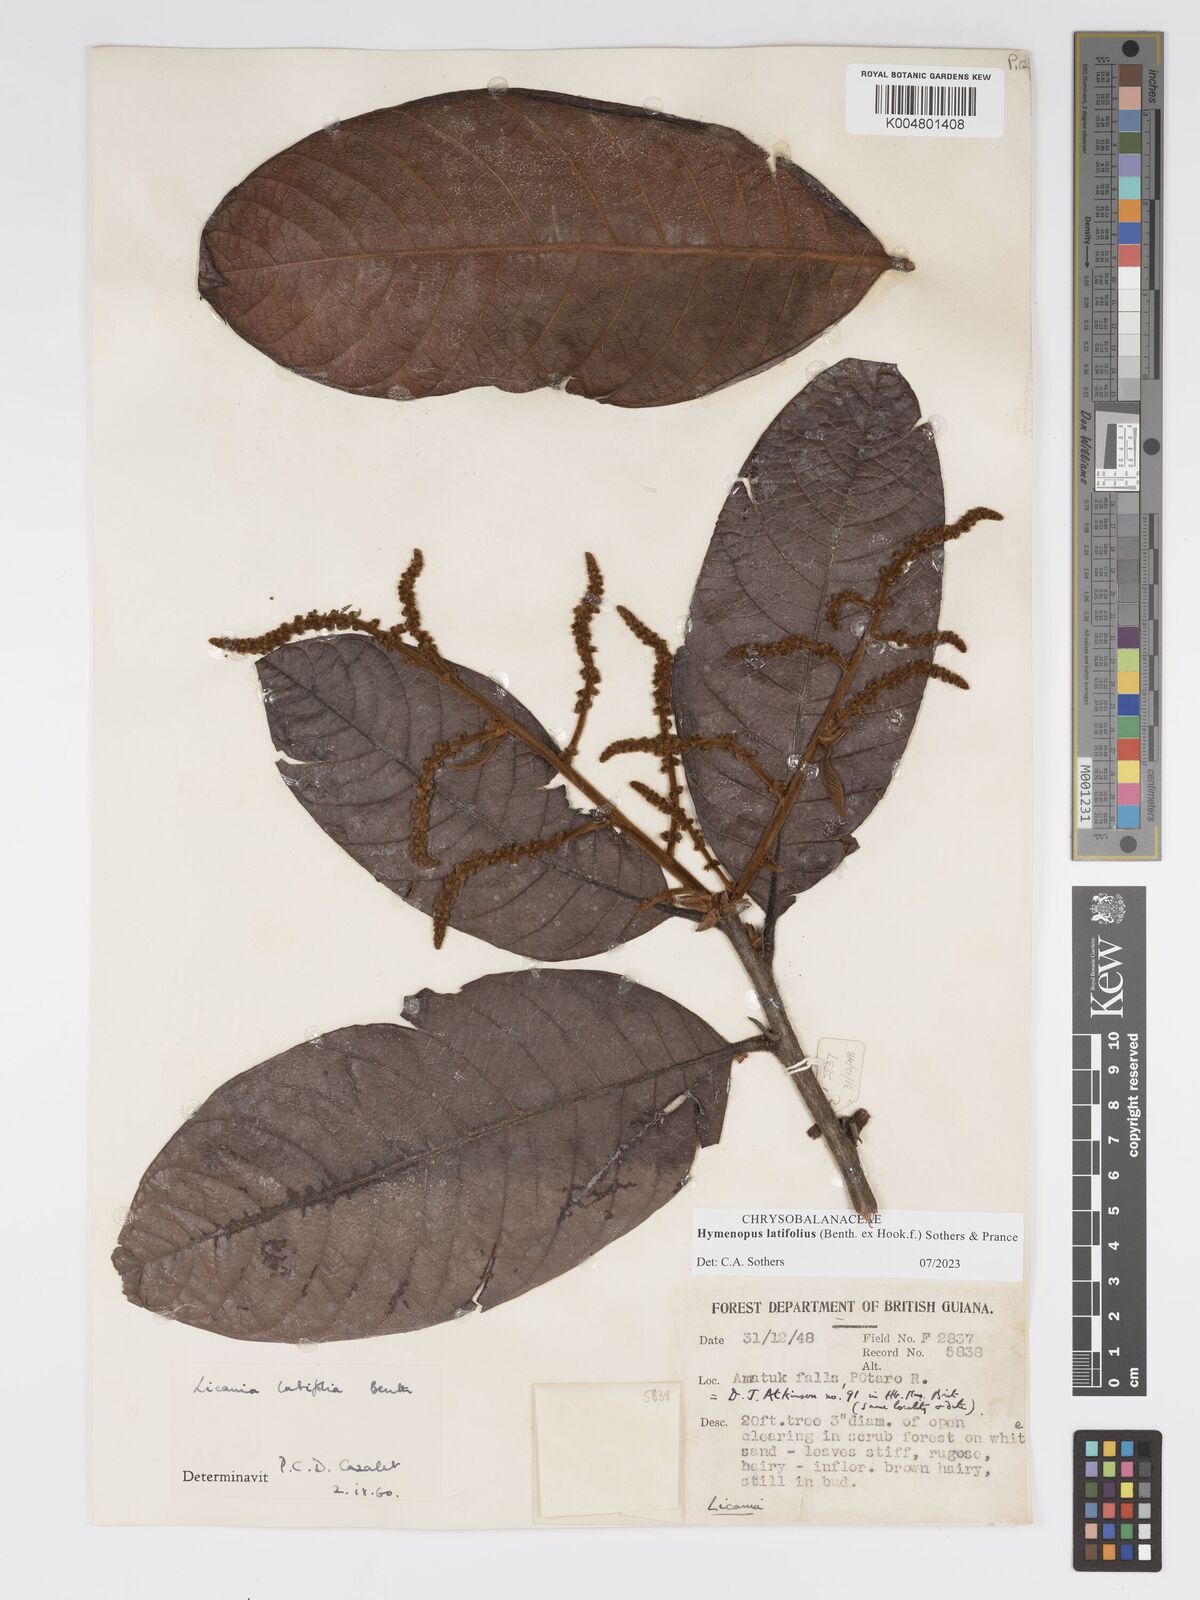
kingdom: Plantae
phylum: Tracheophyta
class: Magnoliopsida
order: Malpighiales
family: Chrysobalanaceae
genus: Hymenopus
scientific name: Hymenopus latifolius
